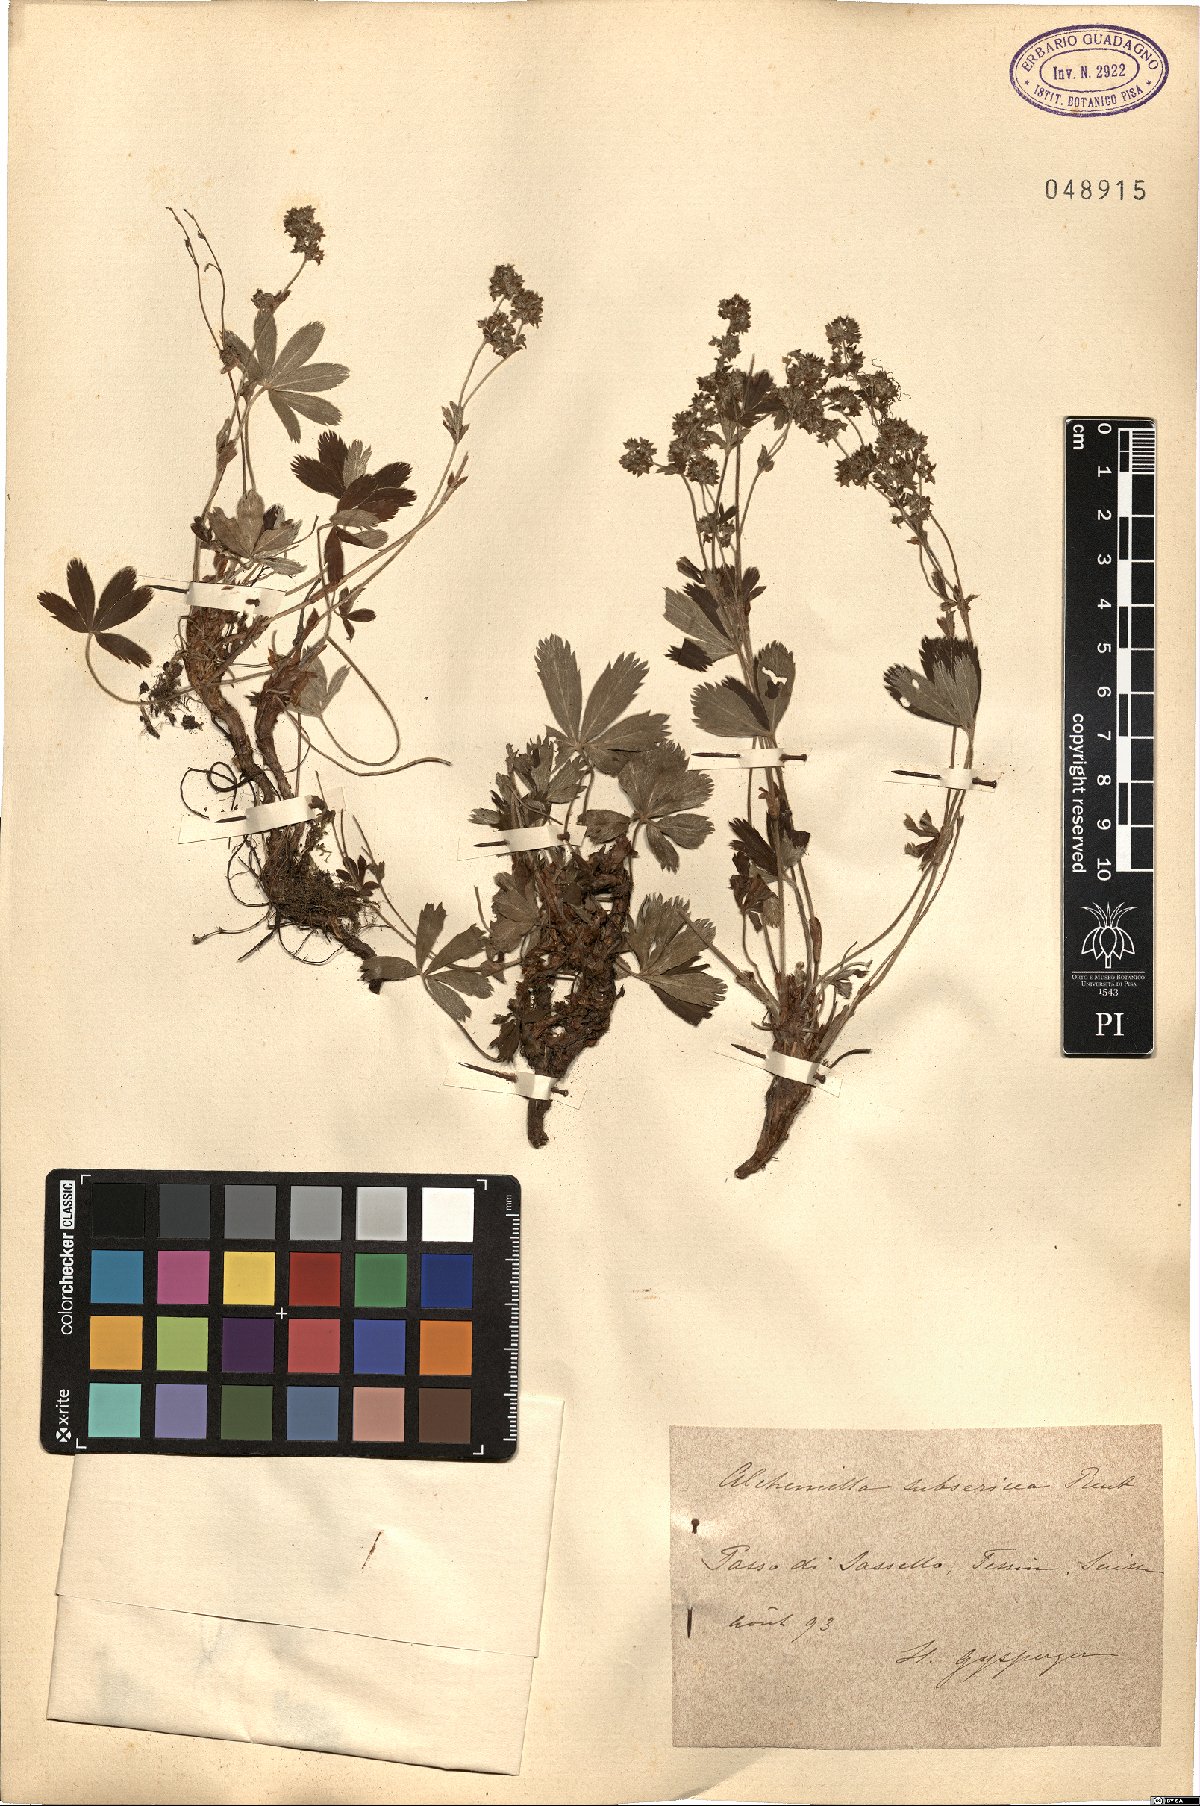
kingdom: Plantae
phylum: Tracheophyta
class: Magnoliopsida
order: Rosales
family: Rosaceae
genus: Alchemilla
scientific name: Alchemilla subsericea
